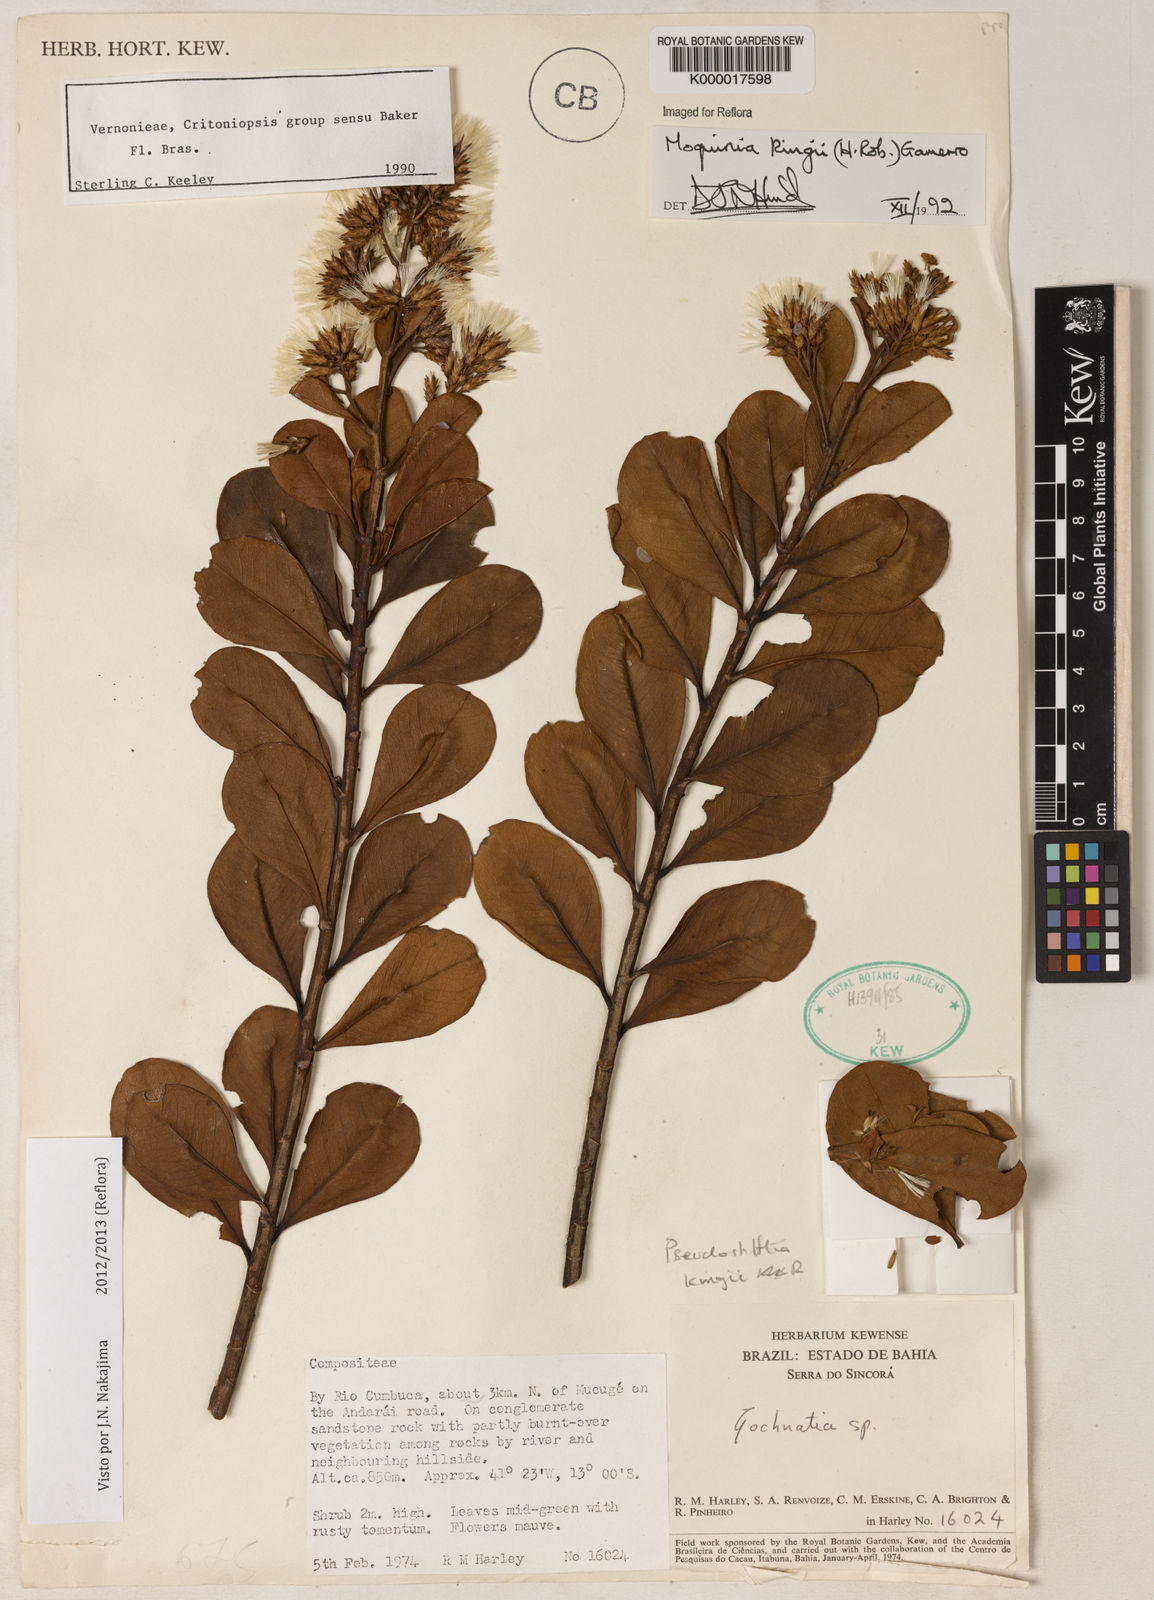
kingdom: Plantae
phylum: Tracheophyta
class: Magnoliopsida
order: Asterales
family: Asteraceae
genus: Pseudostifftia
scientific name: Pseudostifftia kingii
